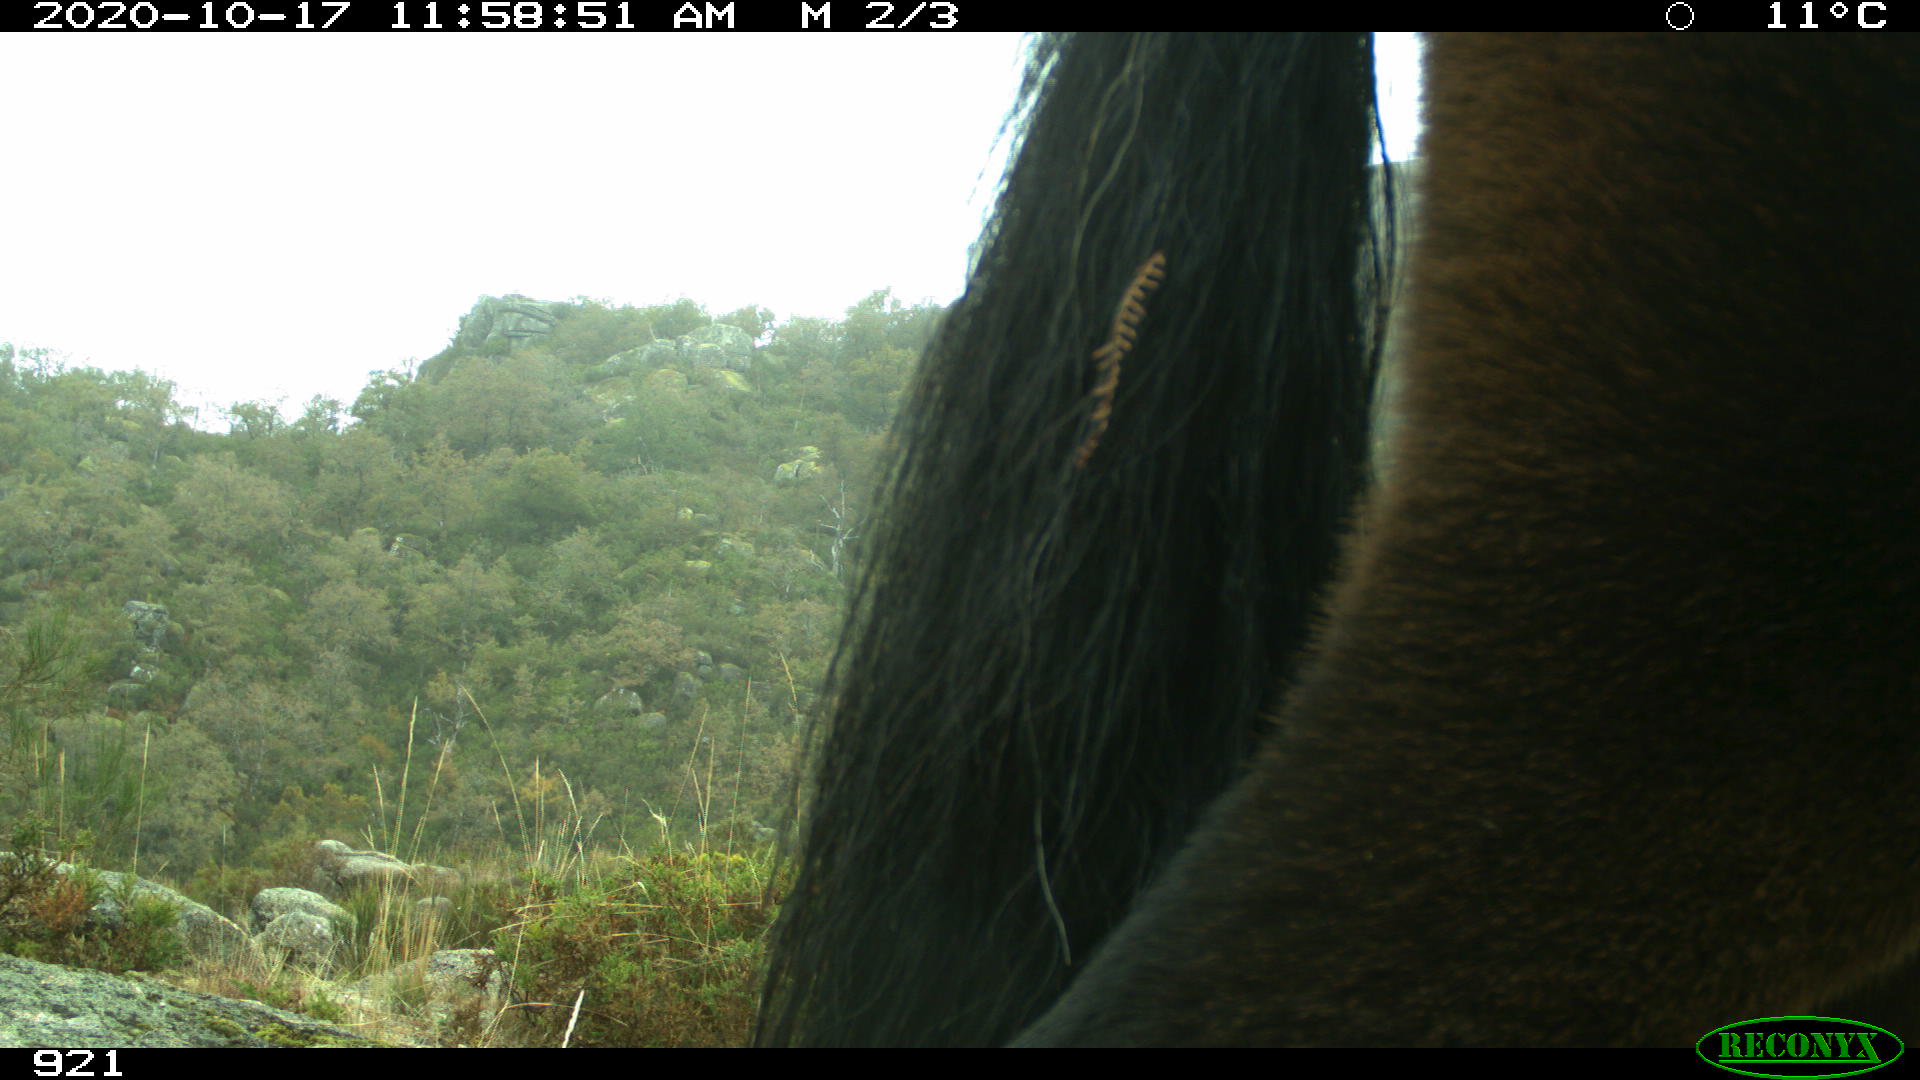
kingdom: Animalia
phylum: Chordata
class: Mammalia
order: Perissodactyla
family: Equidae
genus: Equus
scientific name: Equus caballus
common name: Horse
